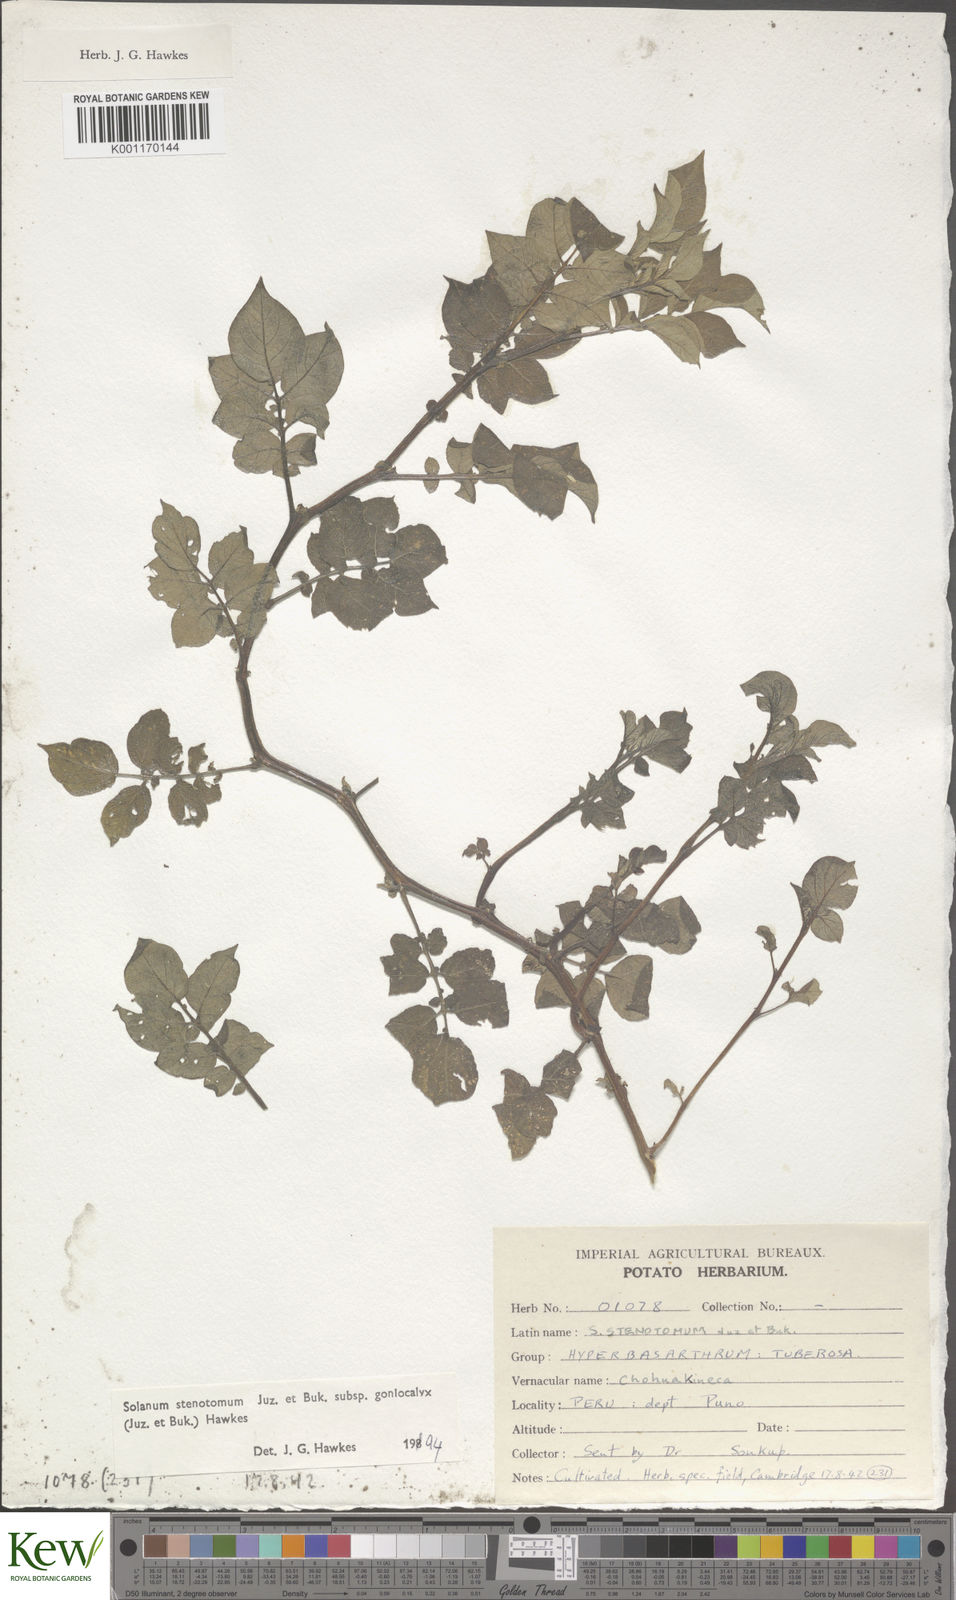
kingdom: Plantae
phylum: Tracheophyta
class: Magnoliopsida
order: Solanales
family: Solanaceae
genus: Solanum
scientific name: Solanum tuberosum
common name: Potato
